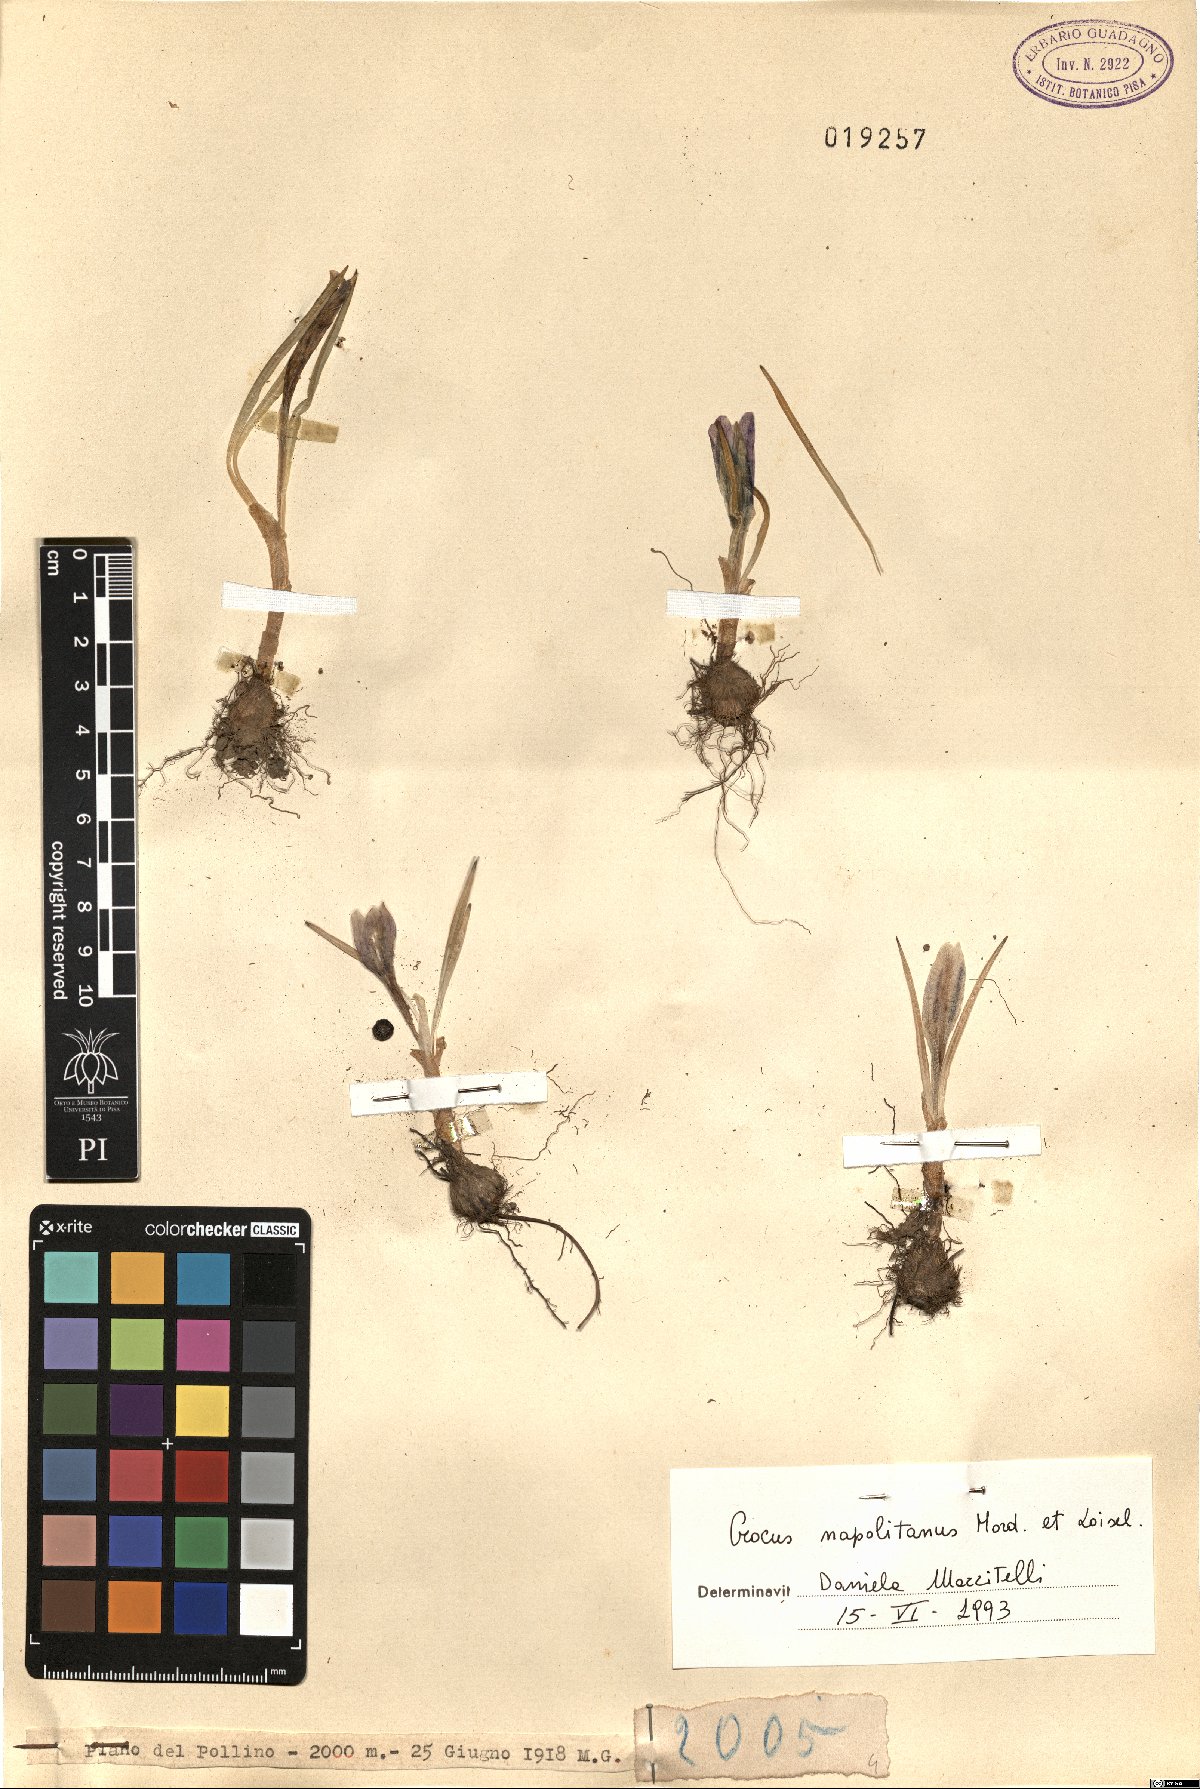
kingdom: Plantae
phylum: Tracheophyta
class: Liliopsida
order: Asparagales
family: Iridaceae
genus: Crocus
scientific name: Crocus neapolitanus
